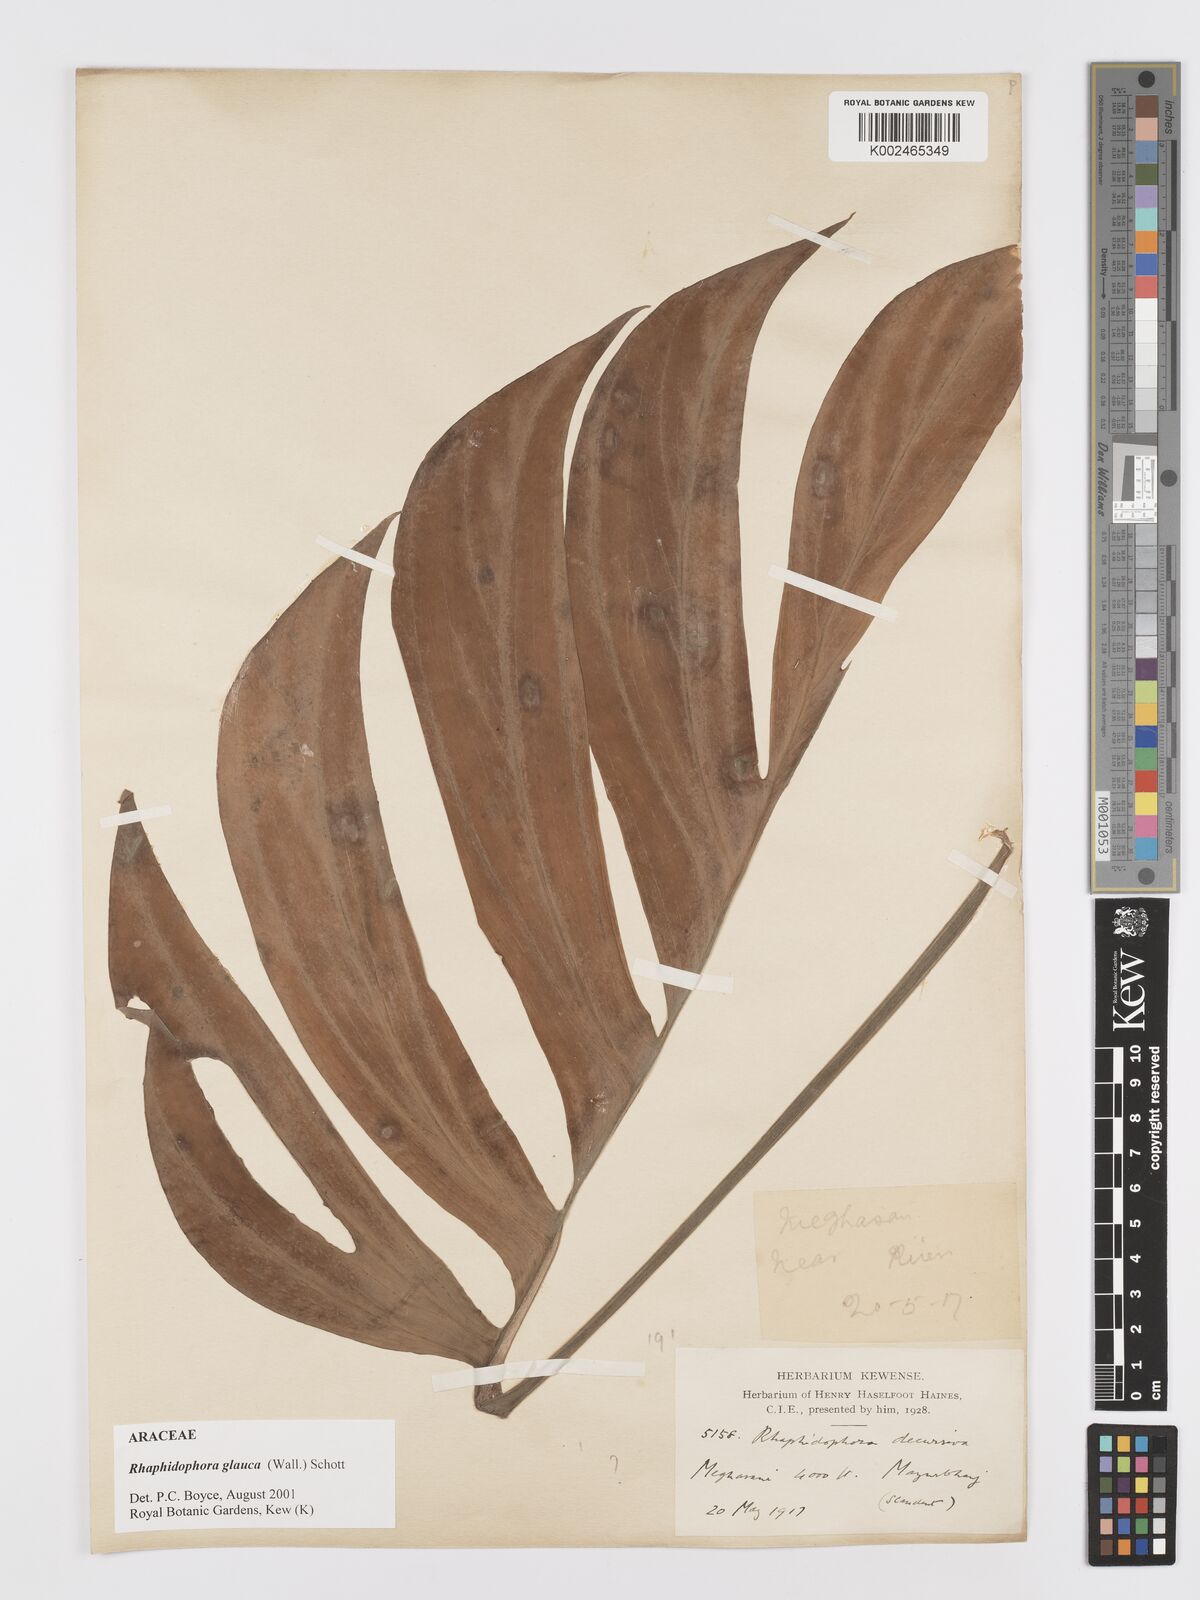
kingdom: Plantae
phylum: Tracheophyta
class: Liliopsida
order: Alismatales
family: Araceae
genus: Rhaphidophora
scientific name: Rhaphidophora glauca
